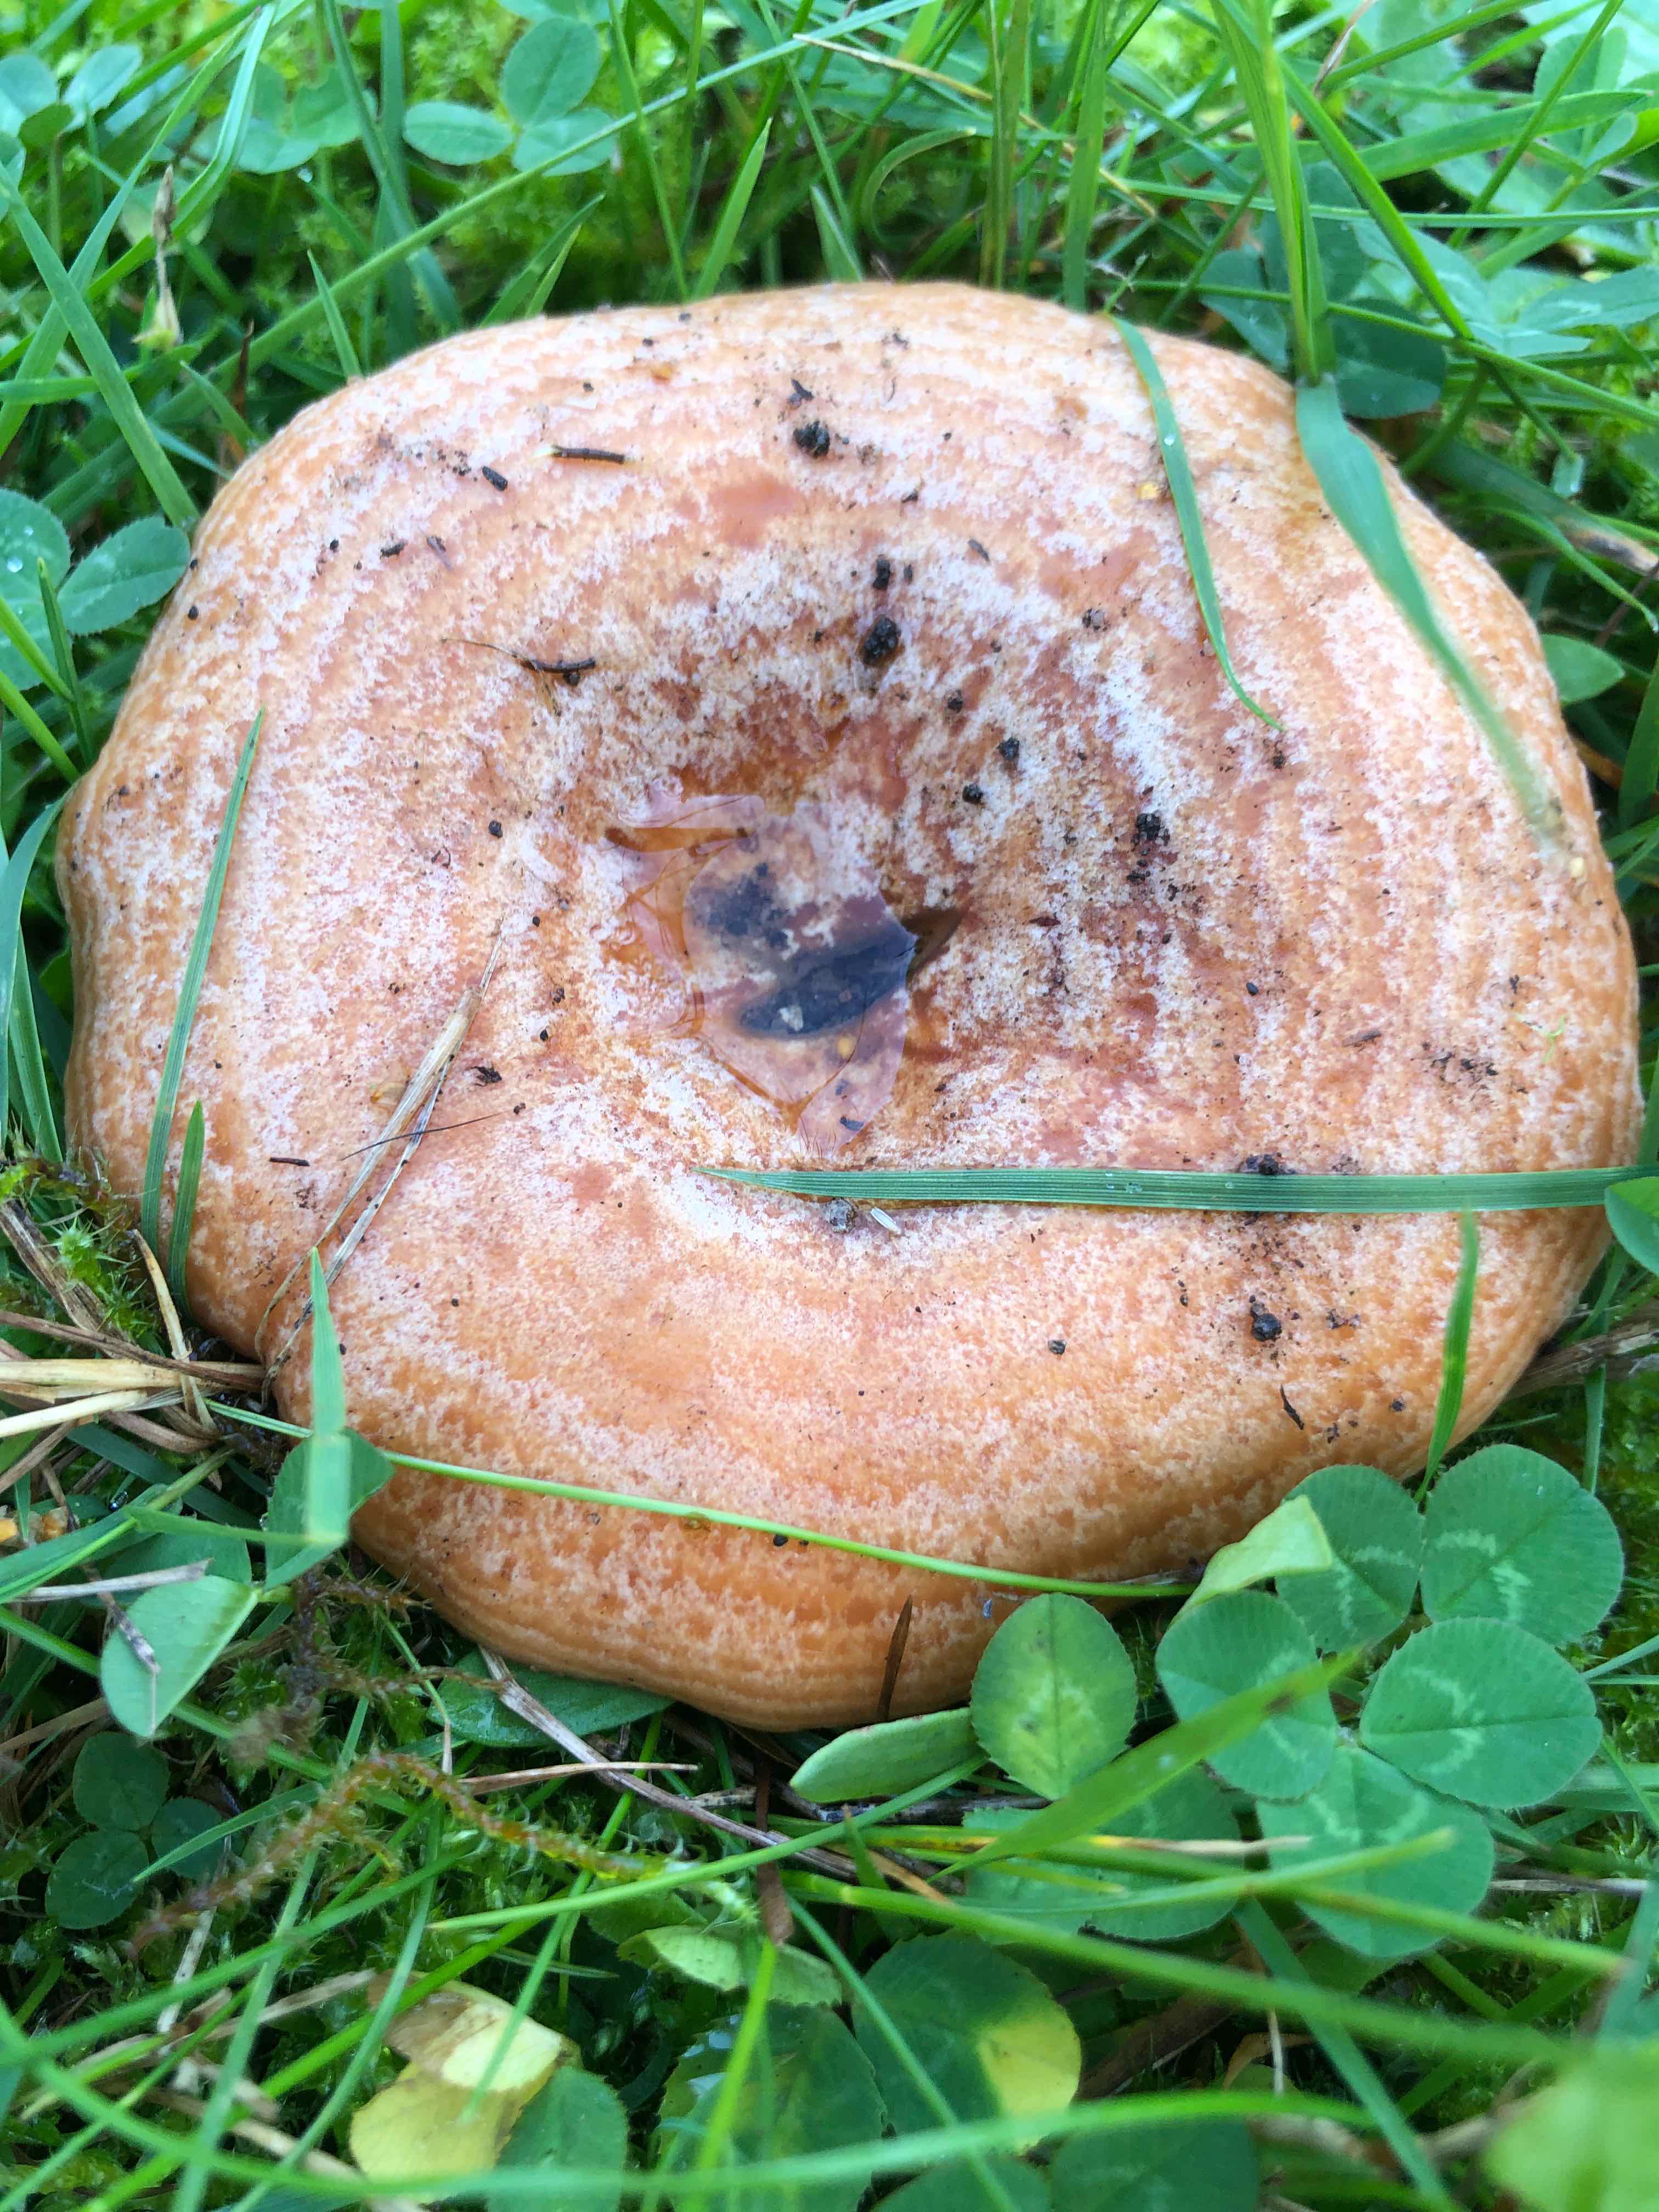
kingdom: Fungi
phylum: Basidiomycota
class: Agaricomycetes
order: Russulales
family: Russulaceae
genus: Lactarius
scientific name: Lactarius deliciosus
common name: velsmagende mælkehat
